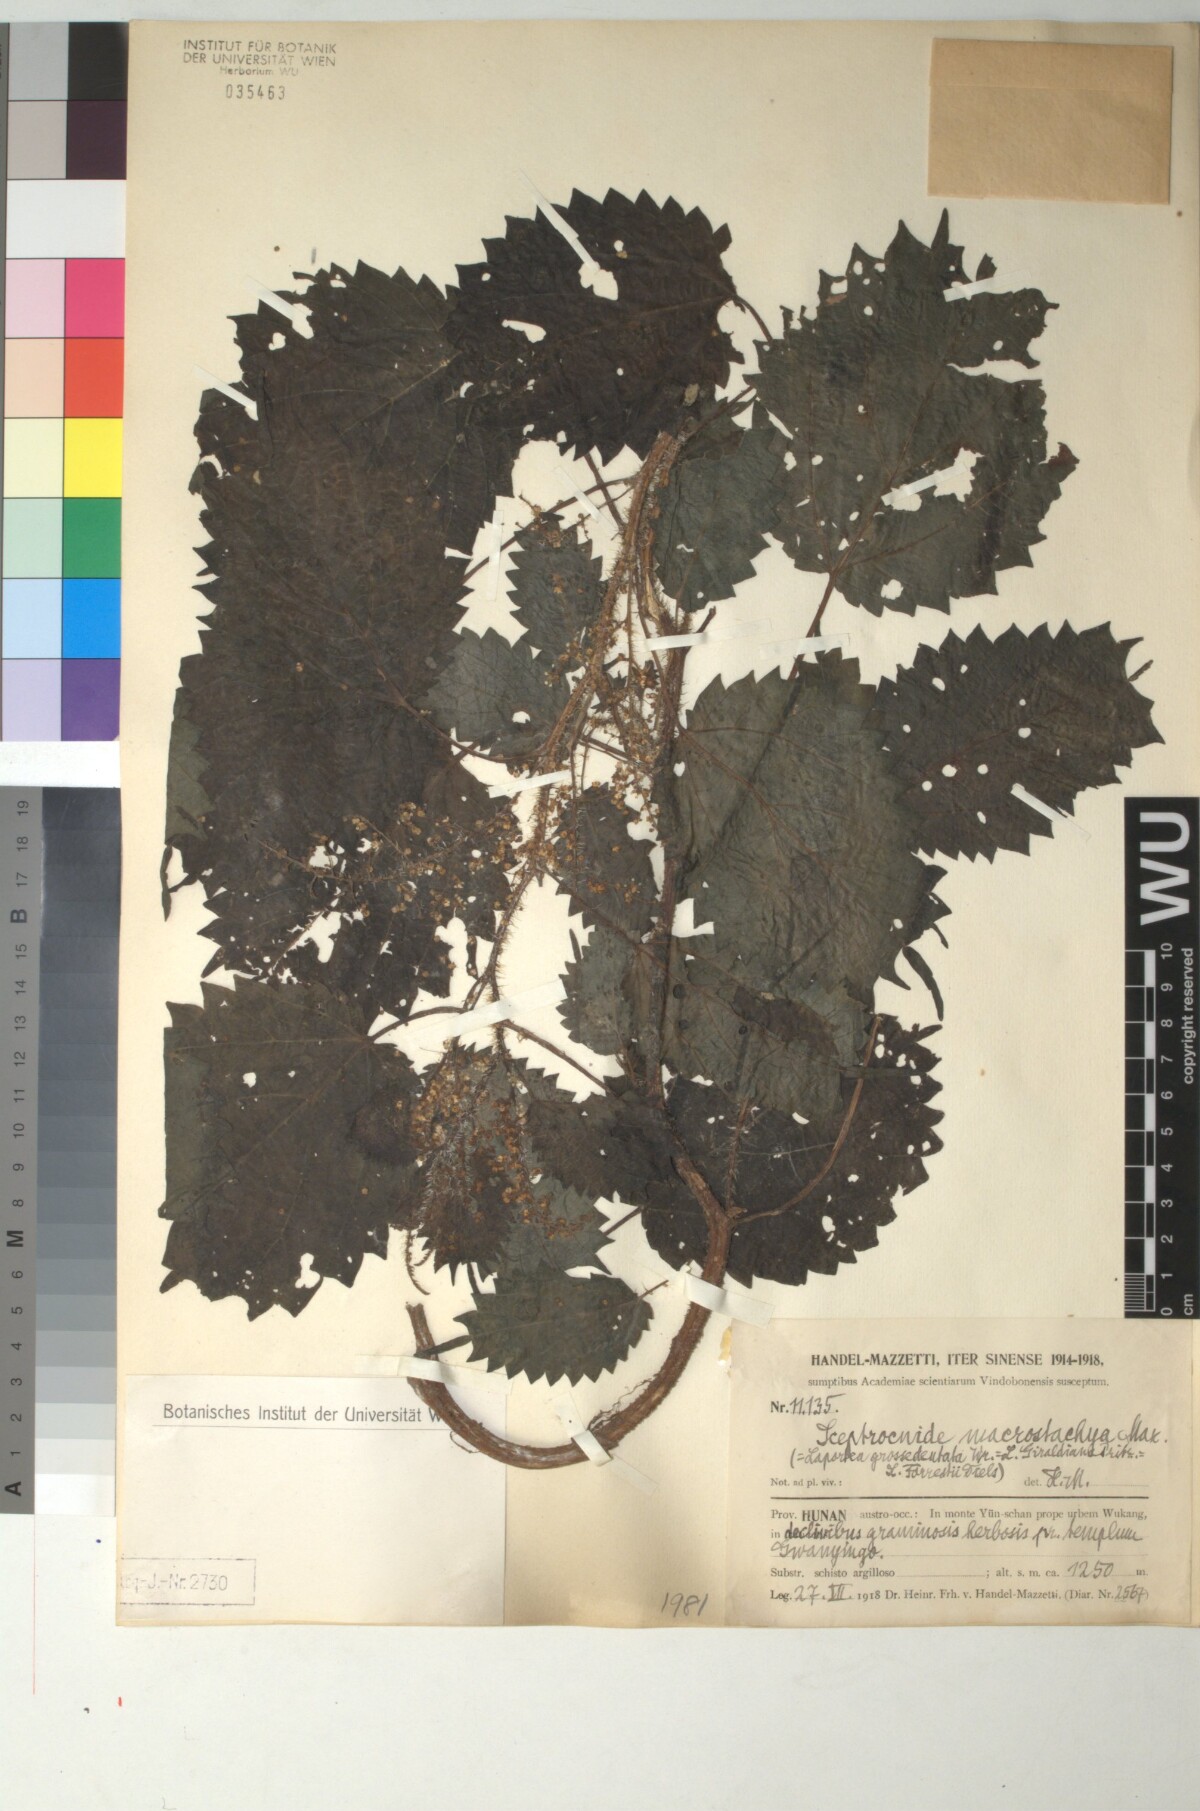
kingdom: Plantae
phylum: Tracheophyta
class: Magnoliopsida
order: Rosales
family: Urticaceae
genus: Laportea
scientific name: Laportea cuspidata
